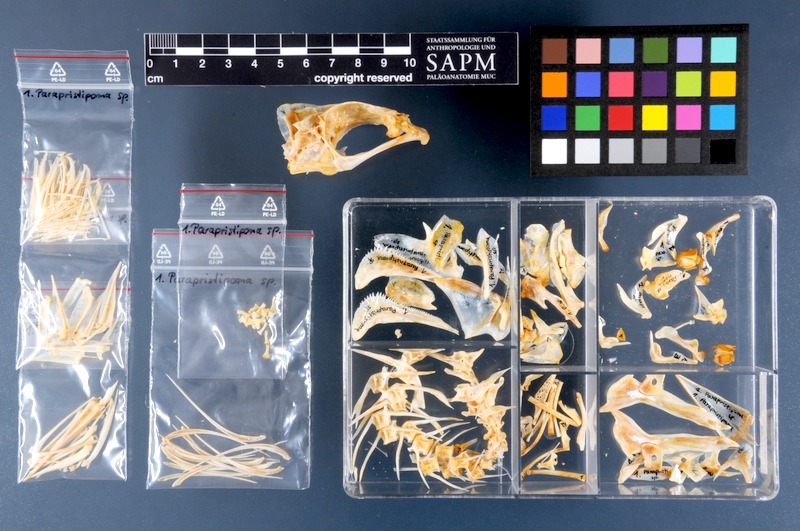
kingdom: Animalia
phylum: Chordata
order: Perciformes
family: Haemulidae
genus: Parapristipoma
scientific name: Parapristipoma
